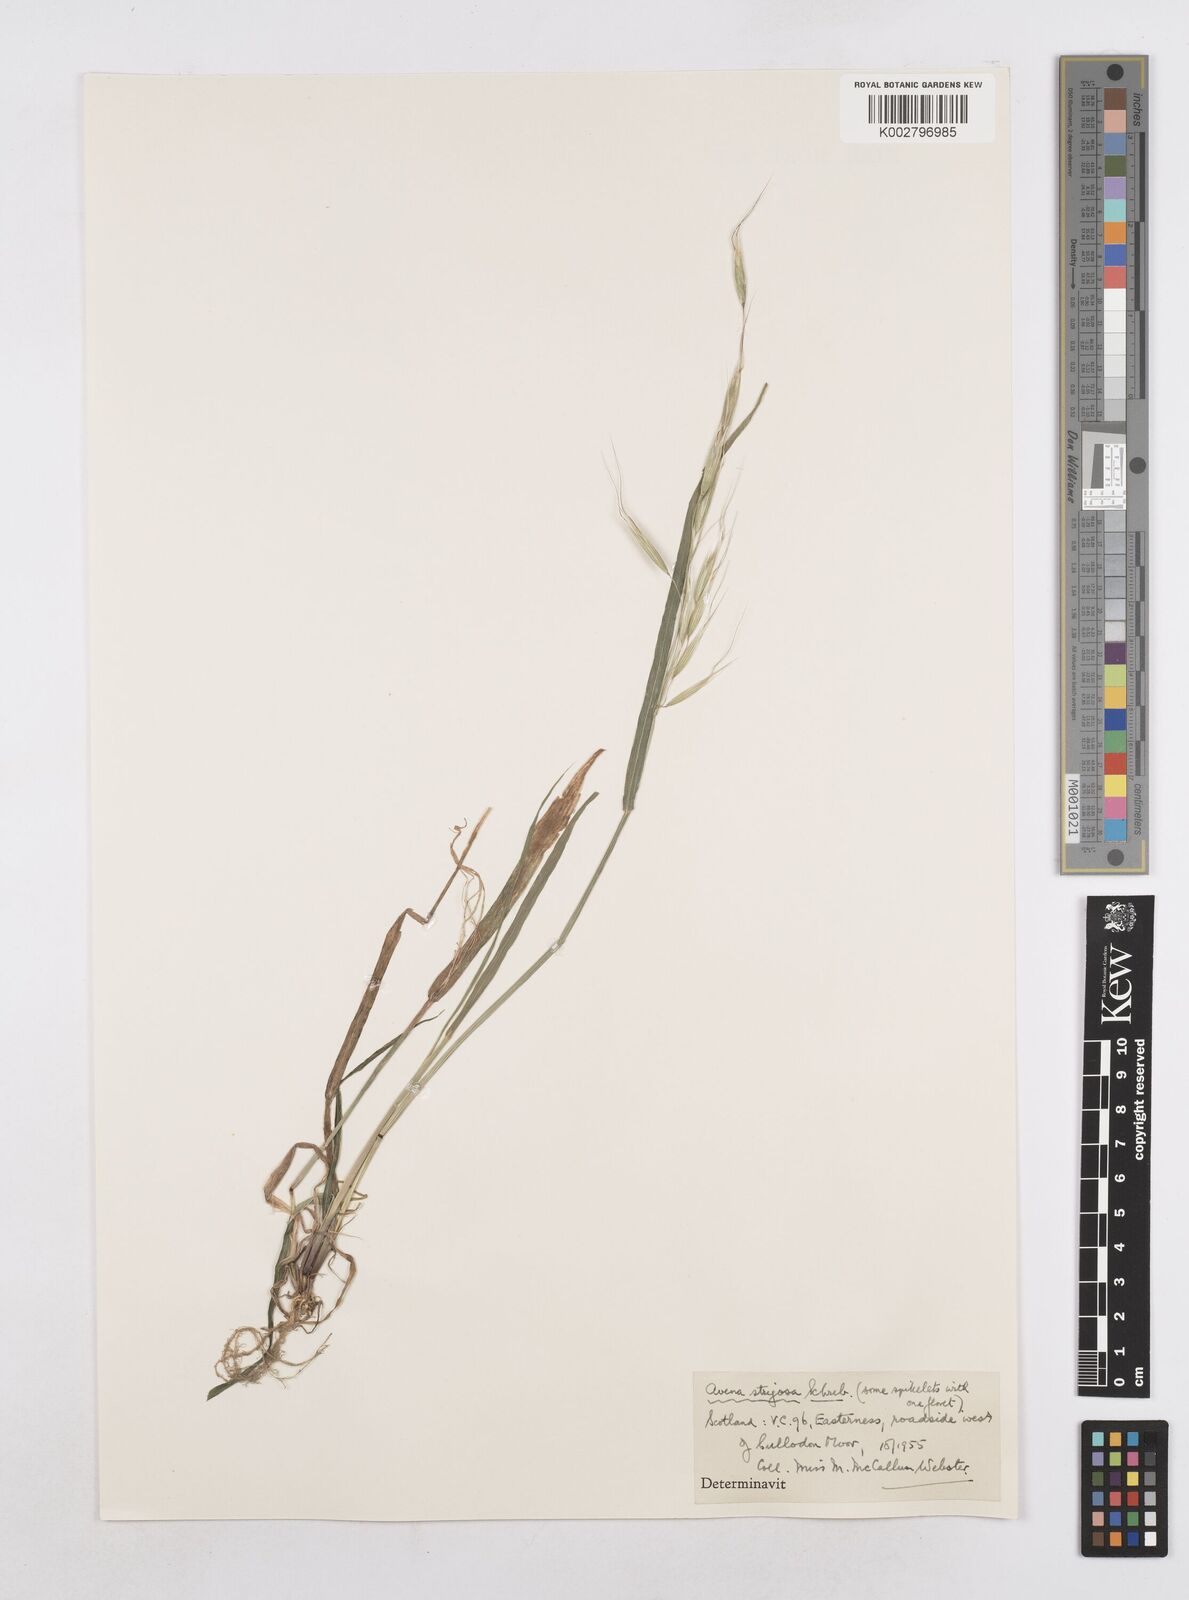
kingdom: Plantae
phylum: Tracheophyta
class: Liliopsida
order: Poales
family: Poaceae
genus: Avena
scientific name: Avena strigosa
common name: Bristle oat
